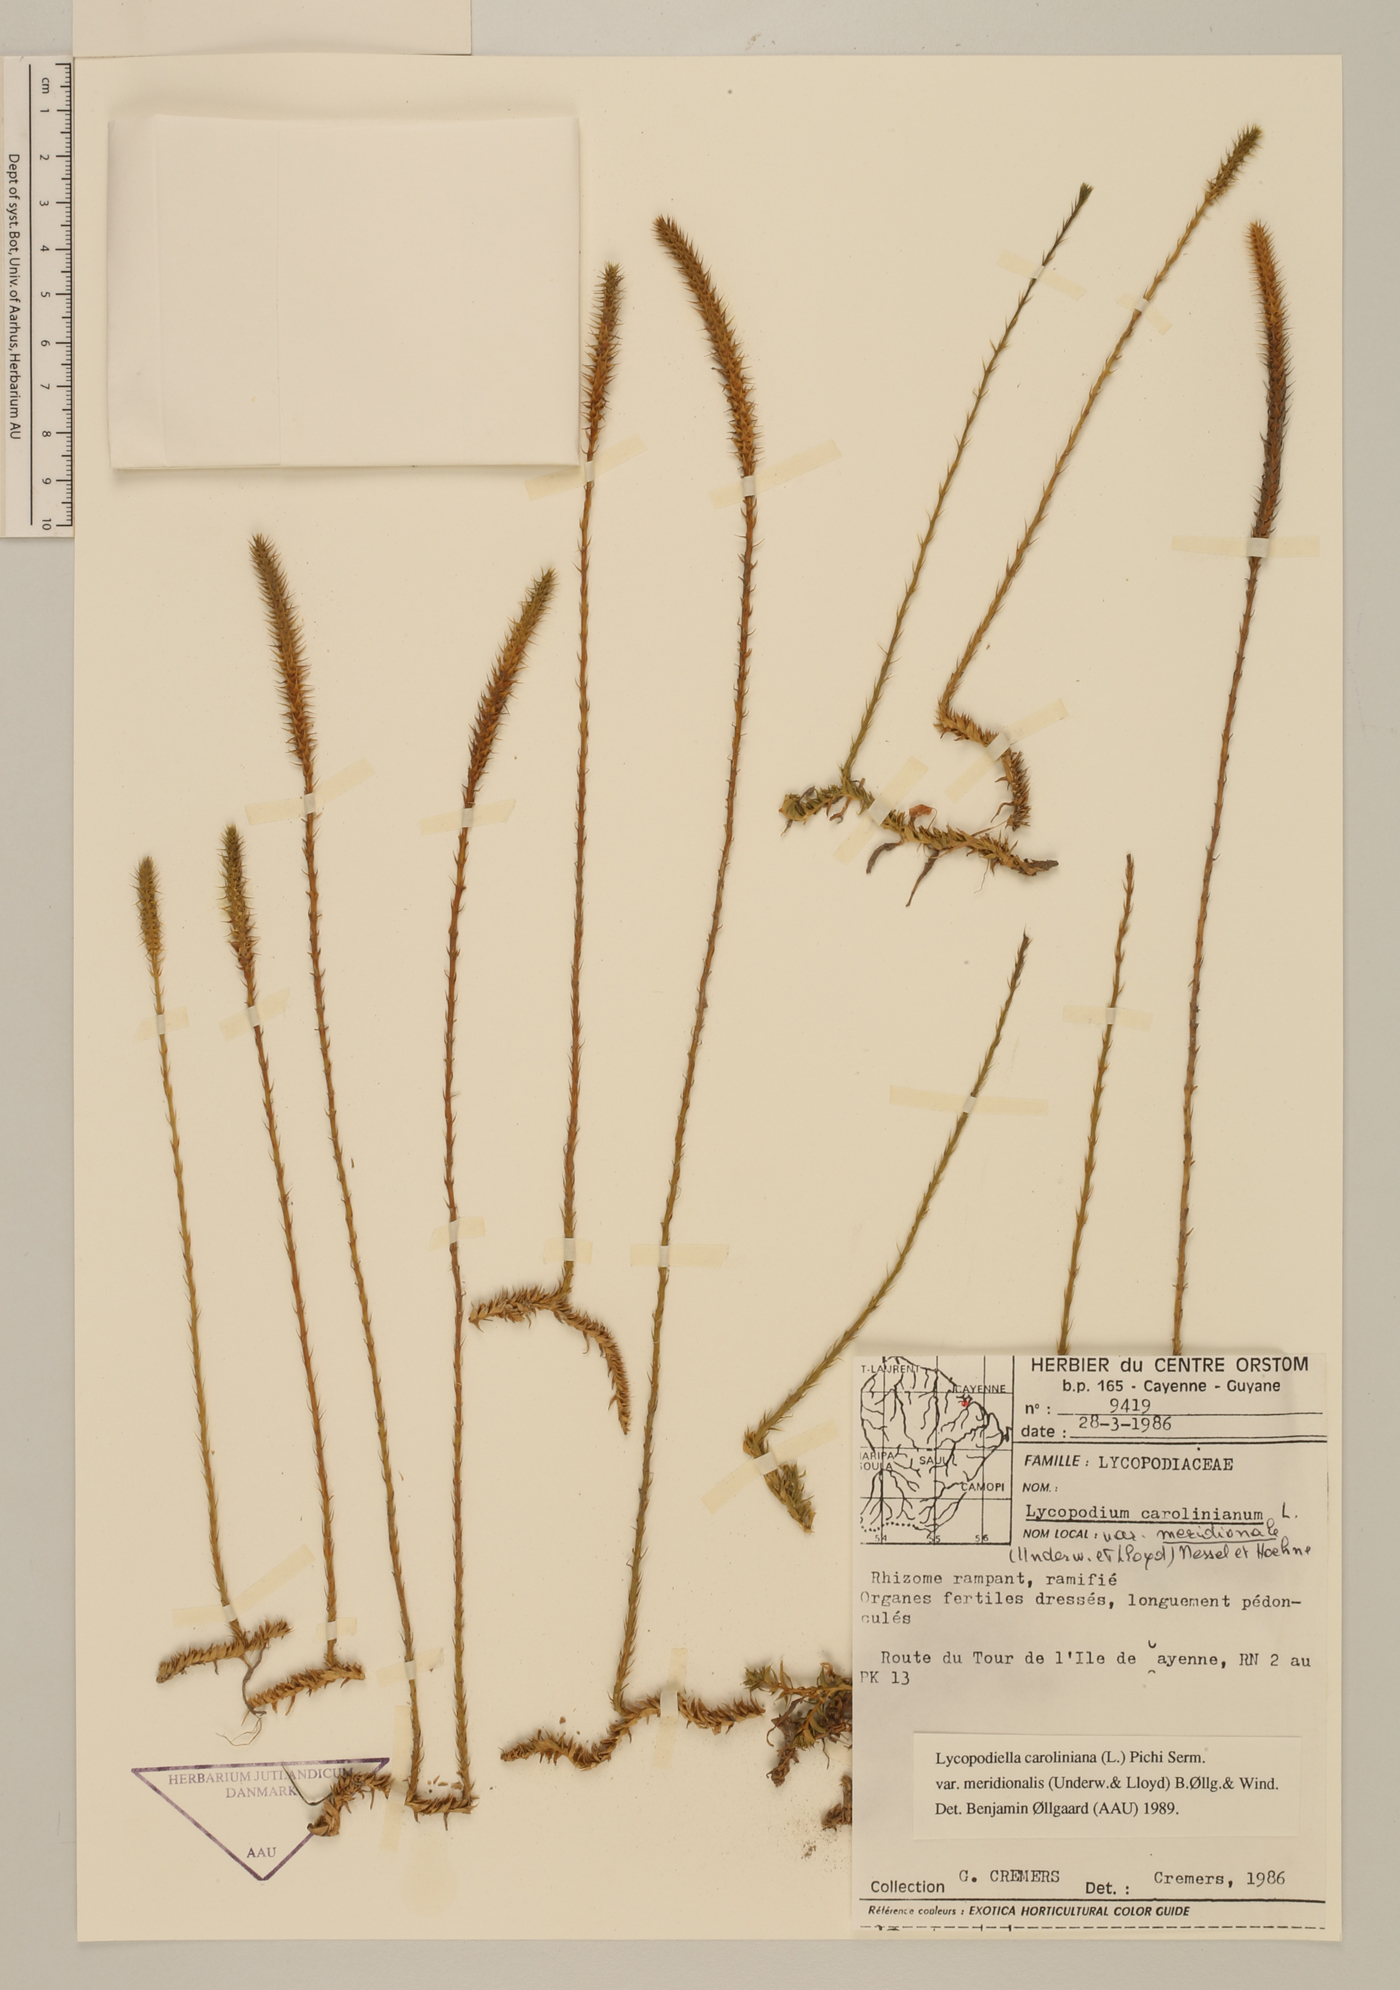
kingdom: Plantae
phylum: Tracheophyta
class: Lycopodiopsida
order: Lycopodiales
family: Lycopodiaceae
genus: Pseudolycopodiella
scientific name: Pseudolycopodiella meridionalis
